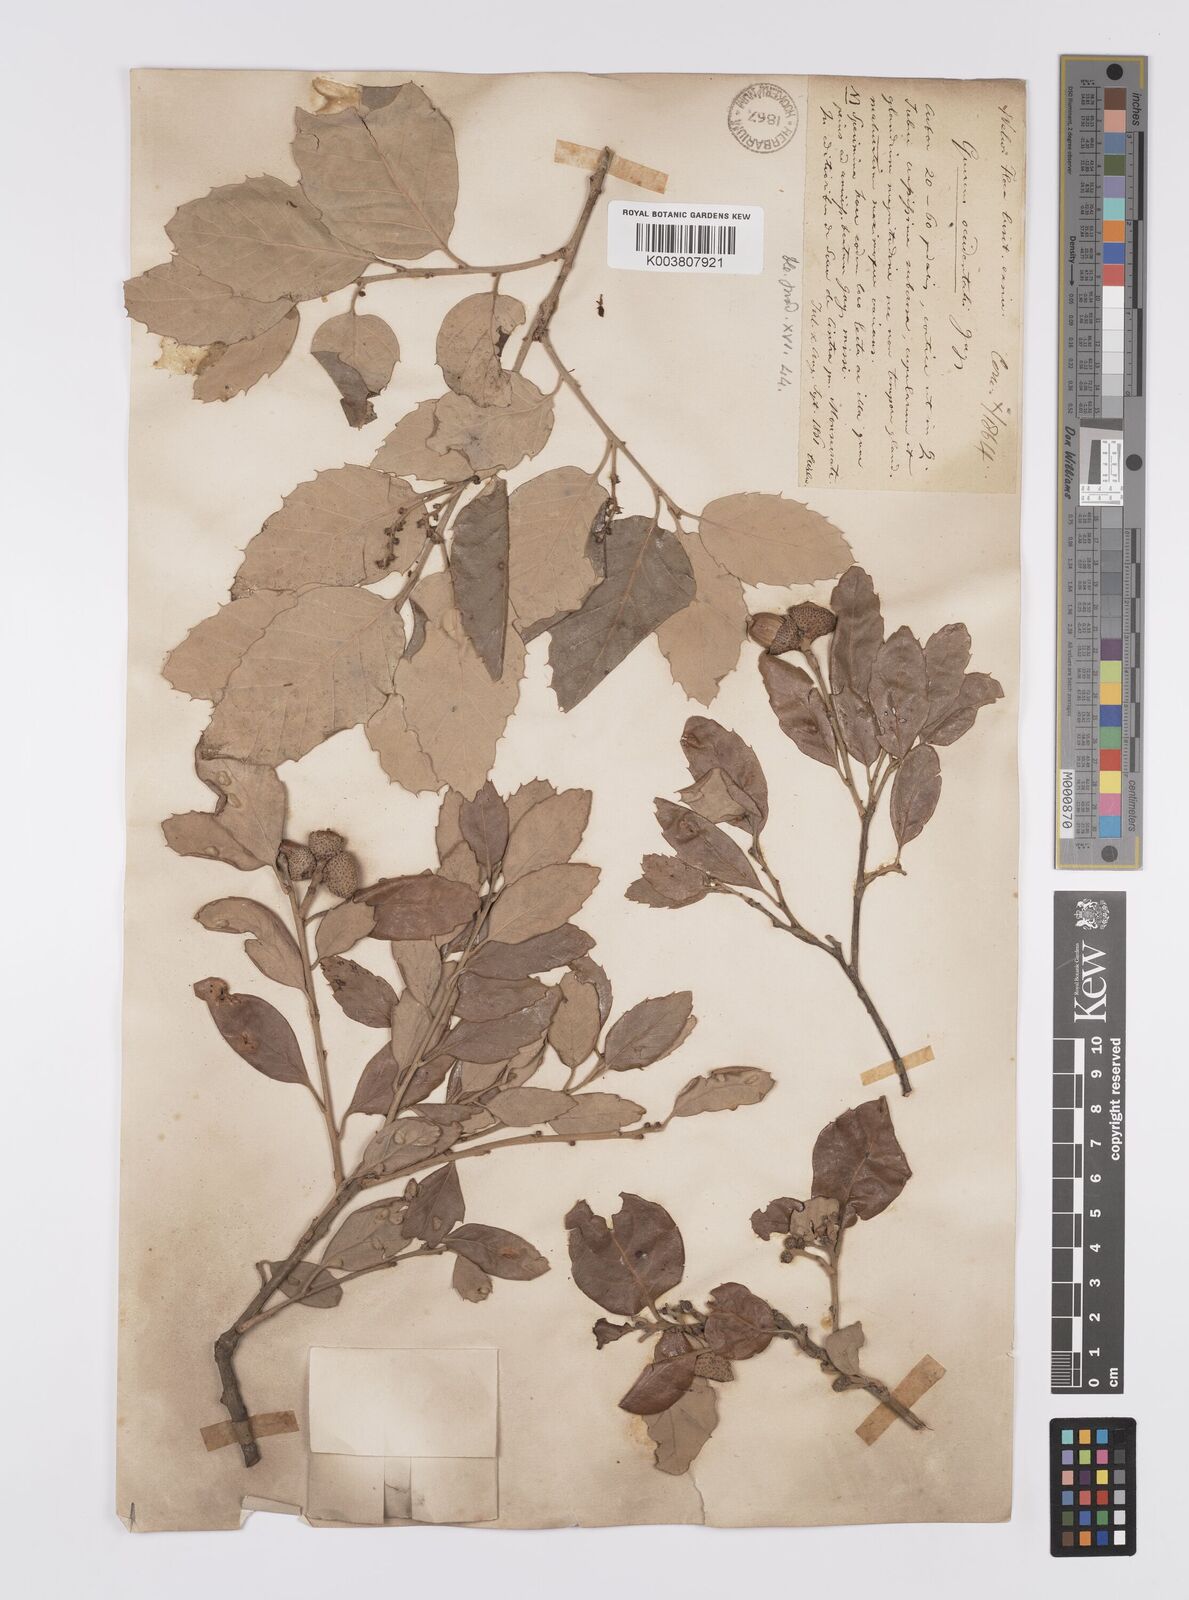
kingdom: Plantae
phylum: Tracheophyta
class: Magnoliopsida
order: Fagales
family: Fagaceae
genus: Quercus
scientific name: Quercus suber
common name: Cork oak
